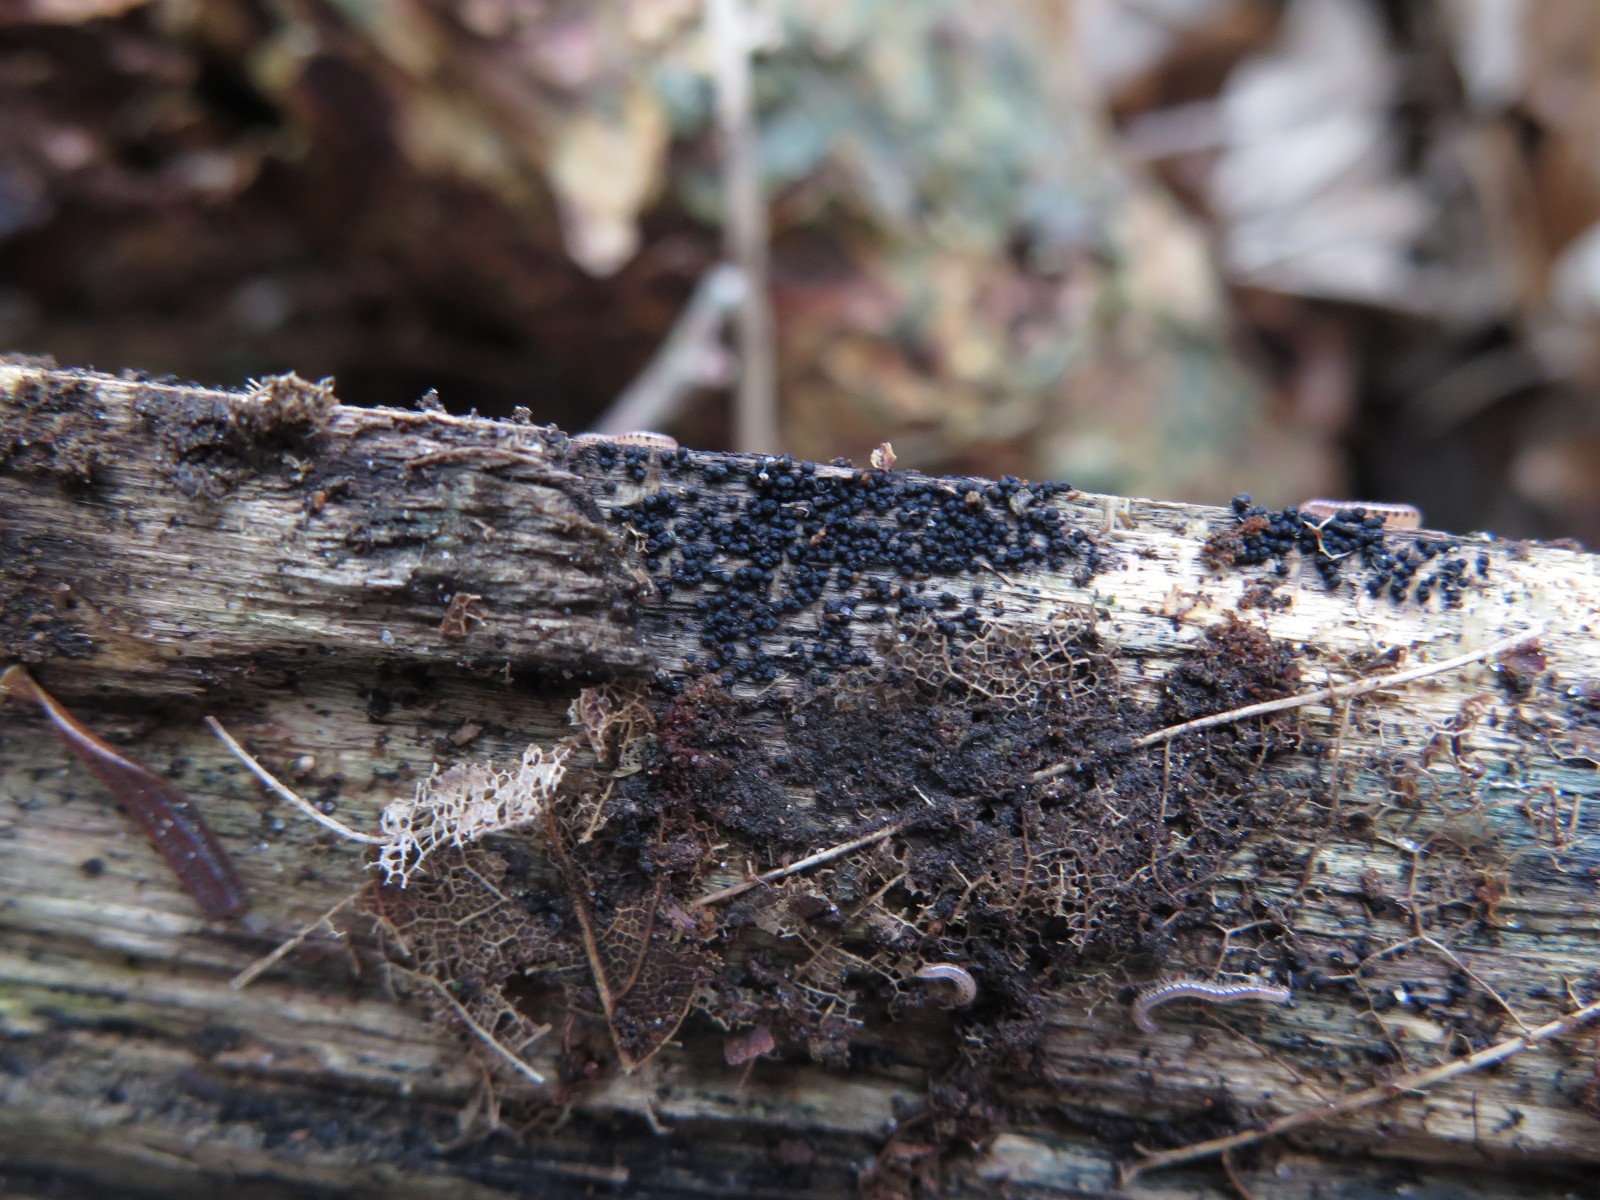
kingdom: Fungi
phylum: Ascomycota
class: Dothideomycetes
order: Pleosporales
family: Melanommataceae
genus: Melanomma
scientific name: Melanomma pulvis-pyrius
